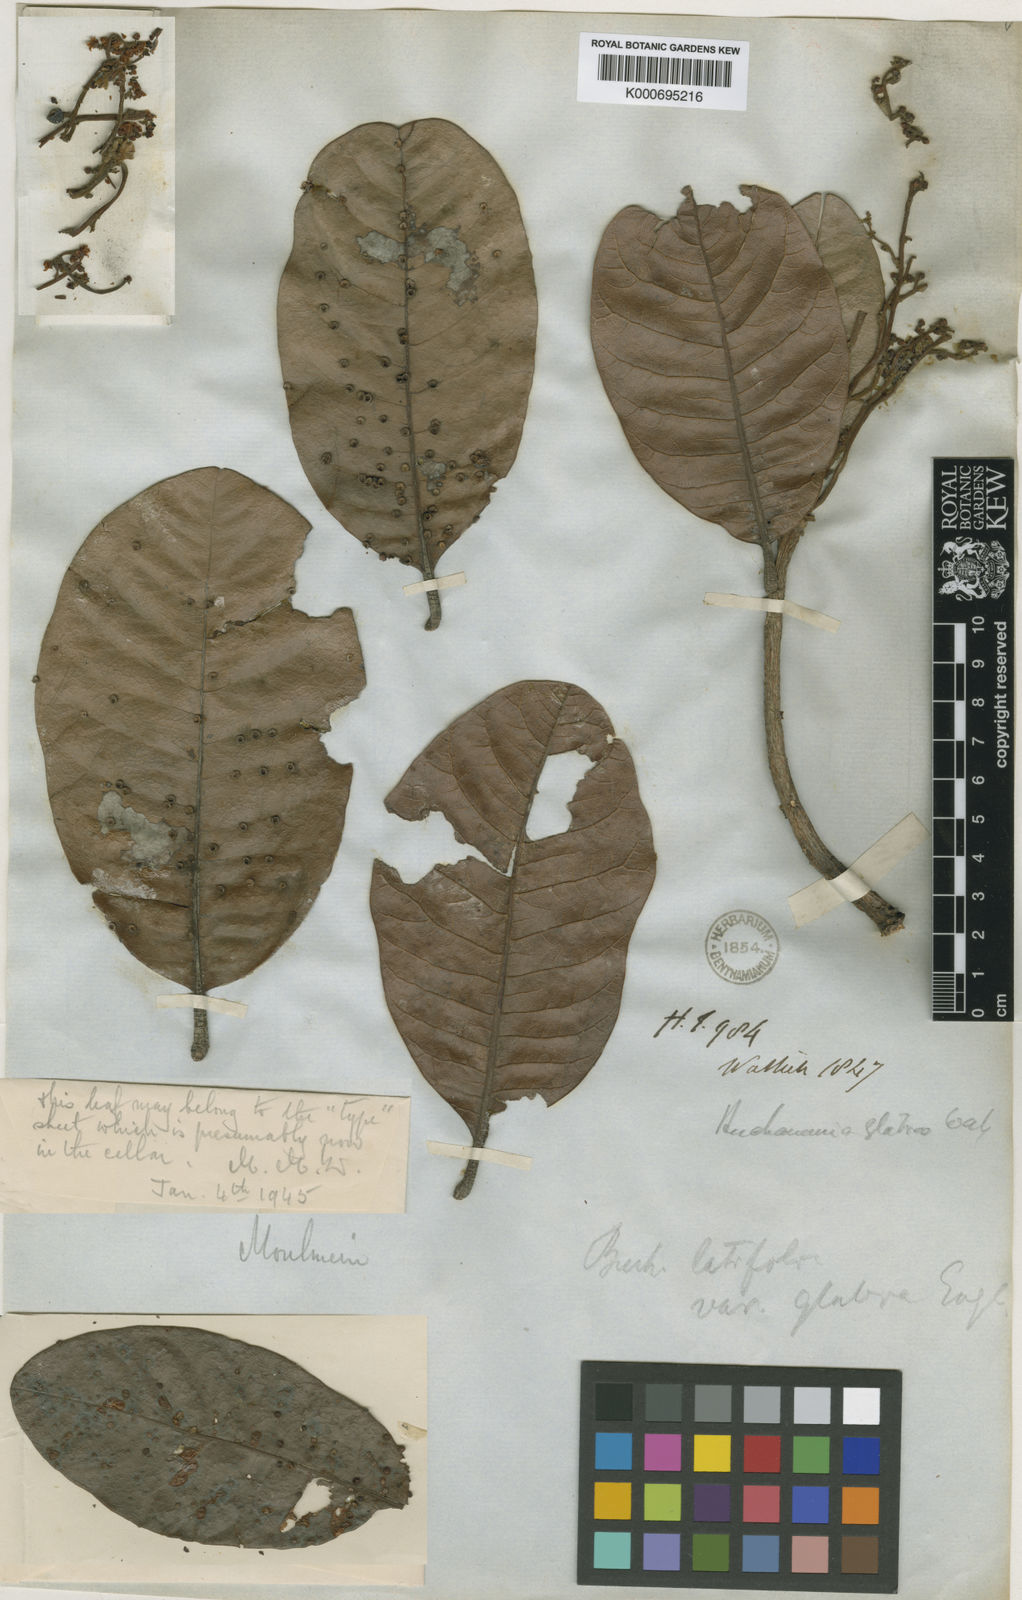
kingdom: Plantae
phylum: Tracheophyta
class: Magnoliopsida
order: Sapindales
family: Anacardiaceae
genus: Buchanania
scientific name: Buchanania
